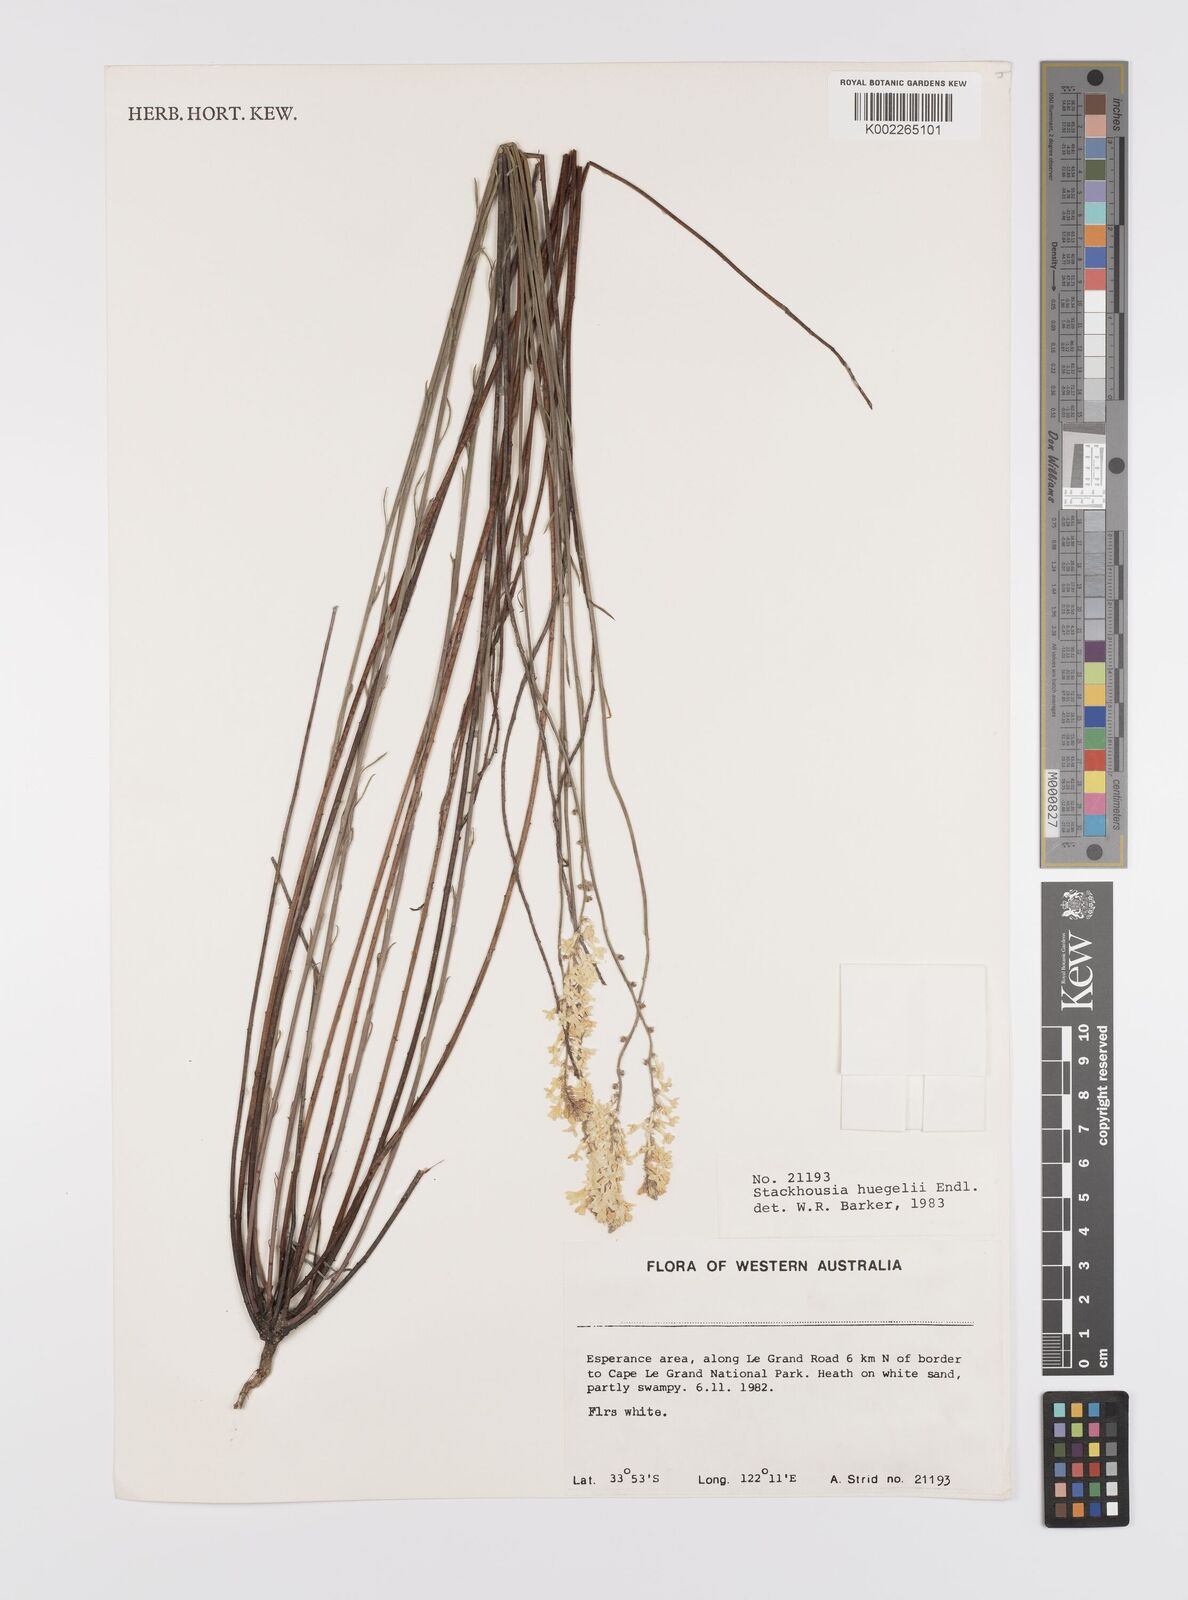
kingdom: Plantae
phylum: Tracheophyta
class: Magnoliopsida
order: Celastrales
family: Celastraceae
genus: Stackhousia
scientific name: Stackhousia monogyna
